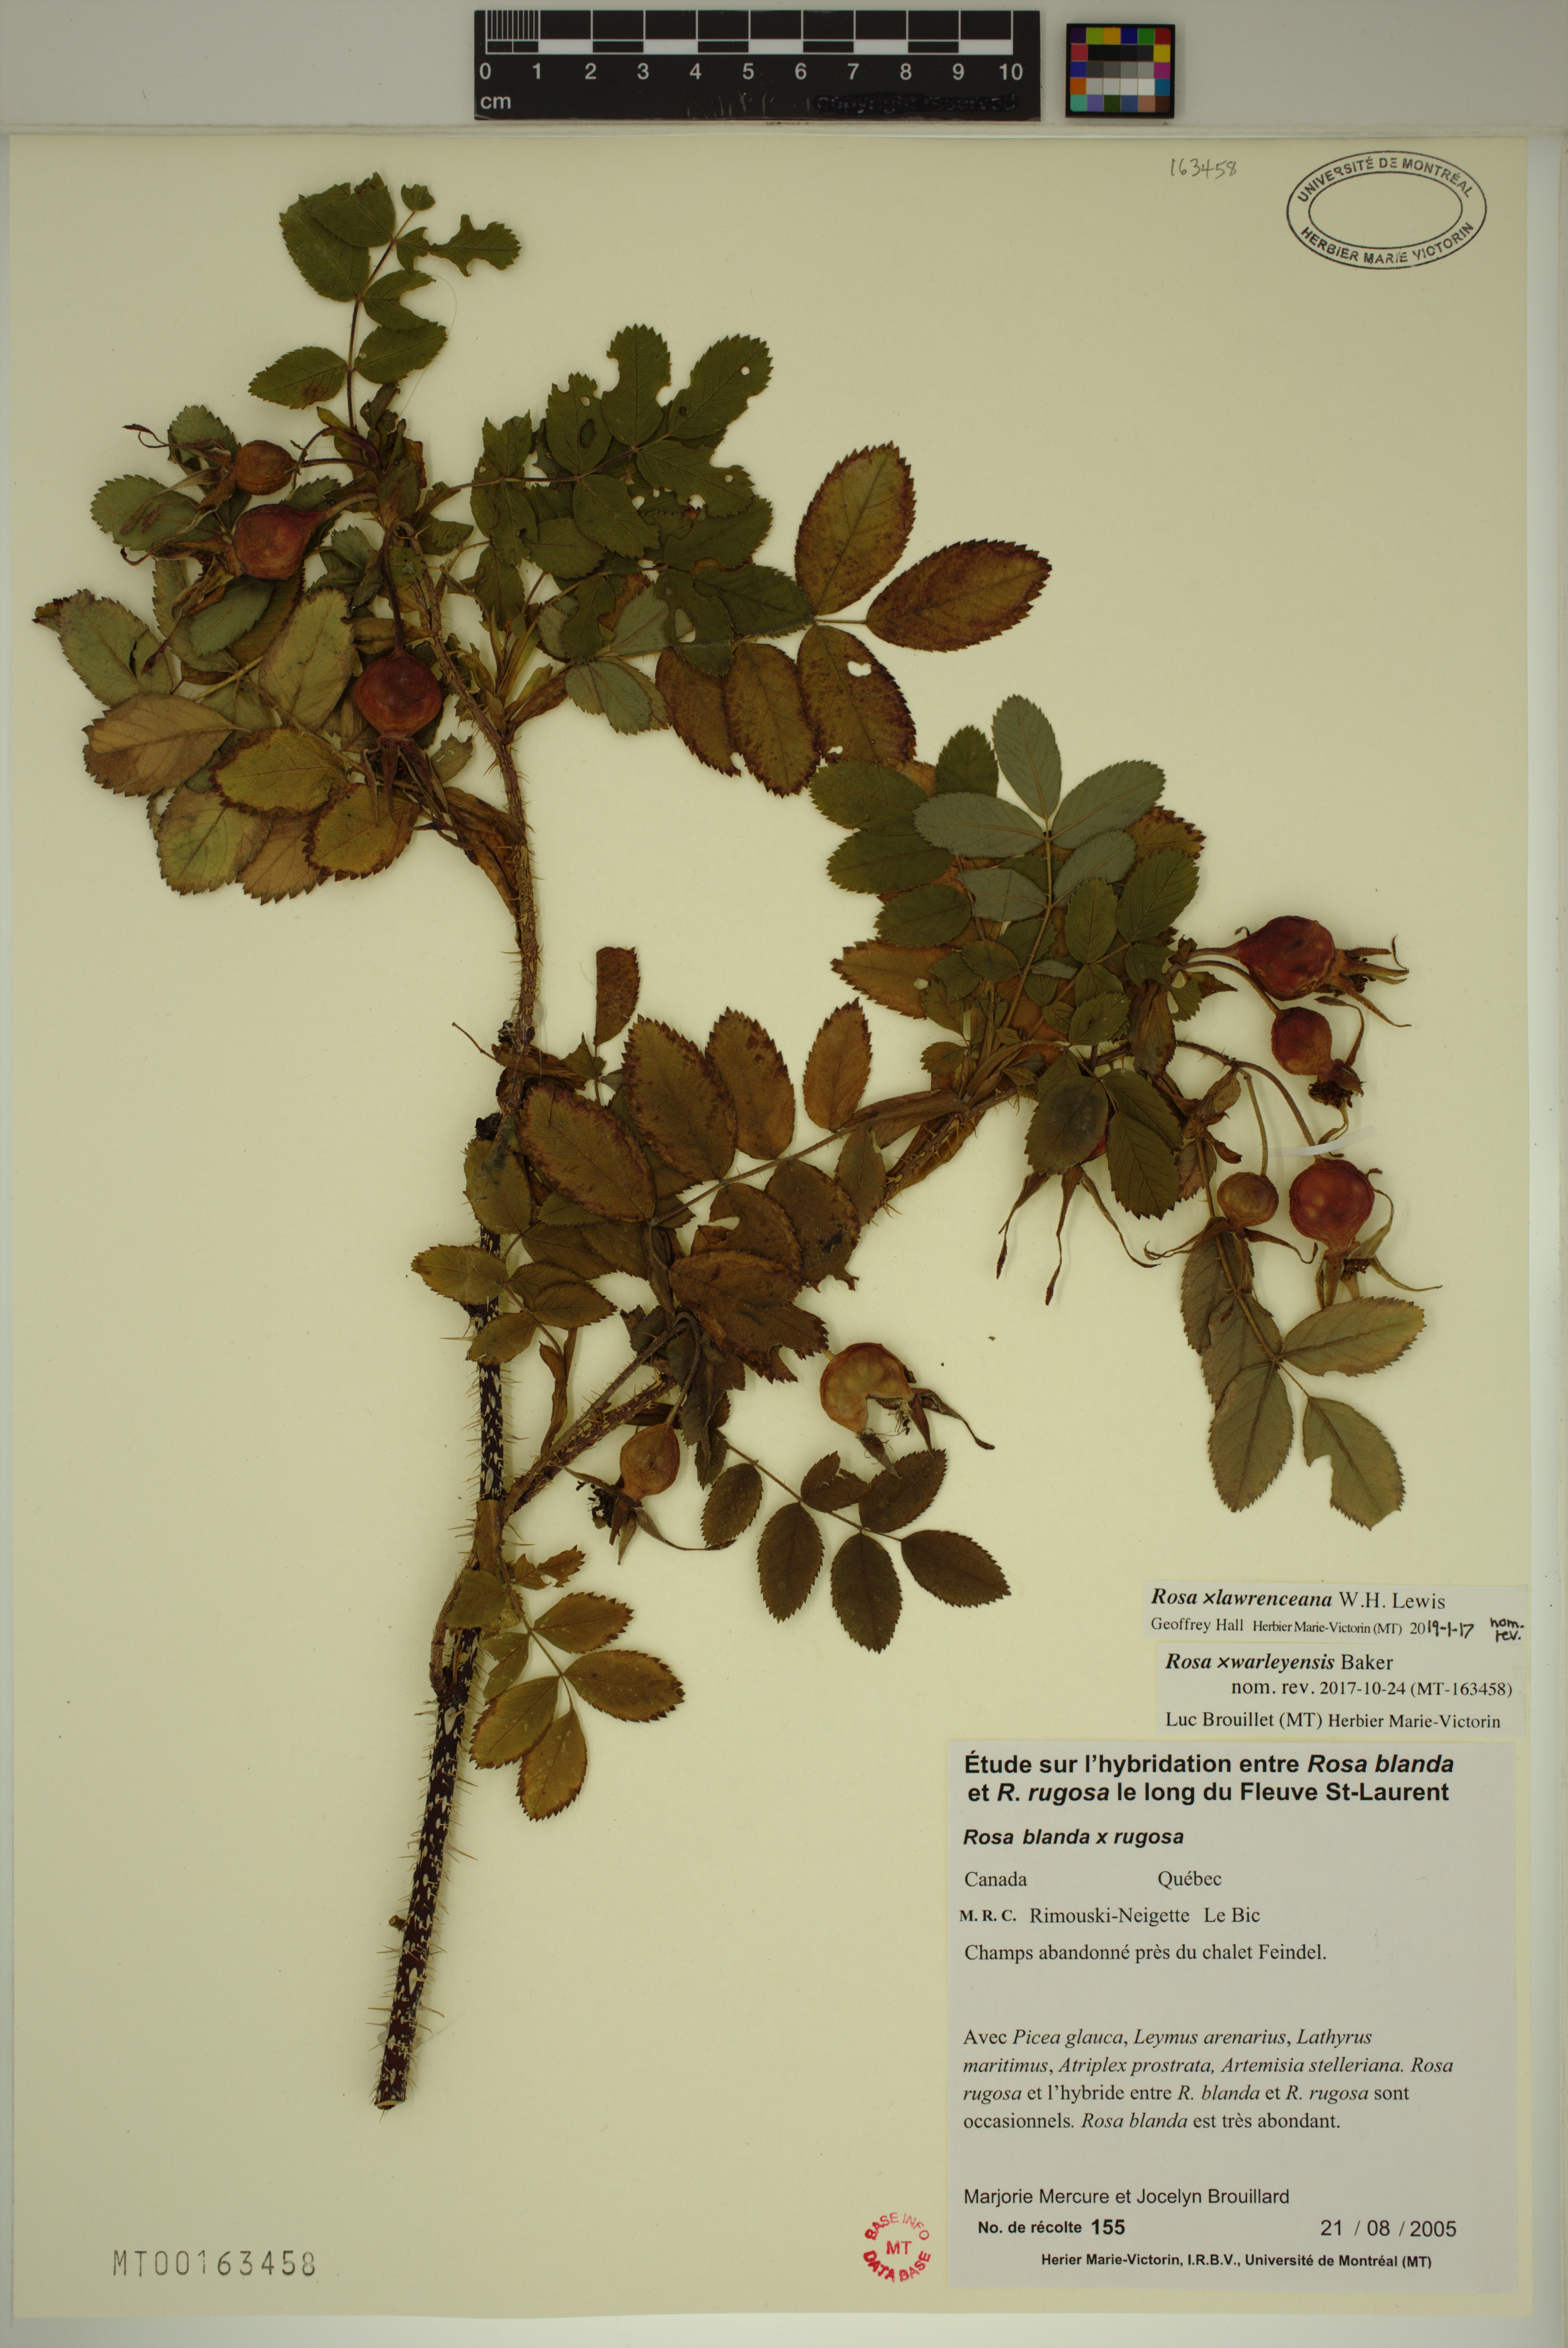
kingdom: Plantae
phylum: Tracheophyta
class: Magnoliopsida
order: Rosales
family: Rosaceae
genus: Rosa
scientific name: Rosa chinensis
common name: China rose
